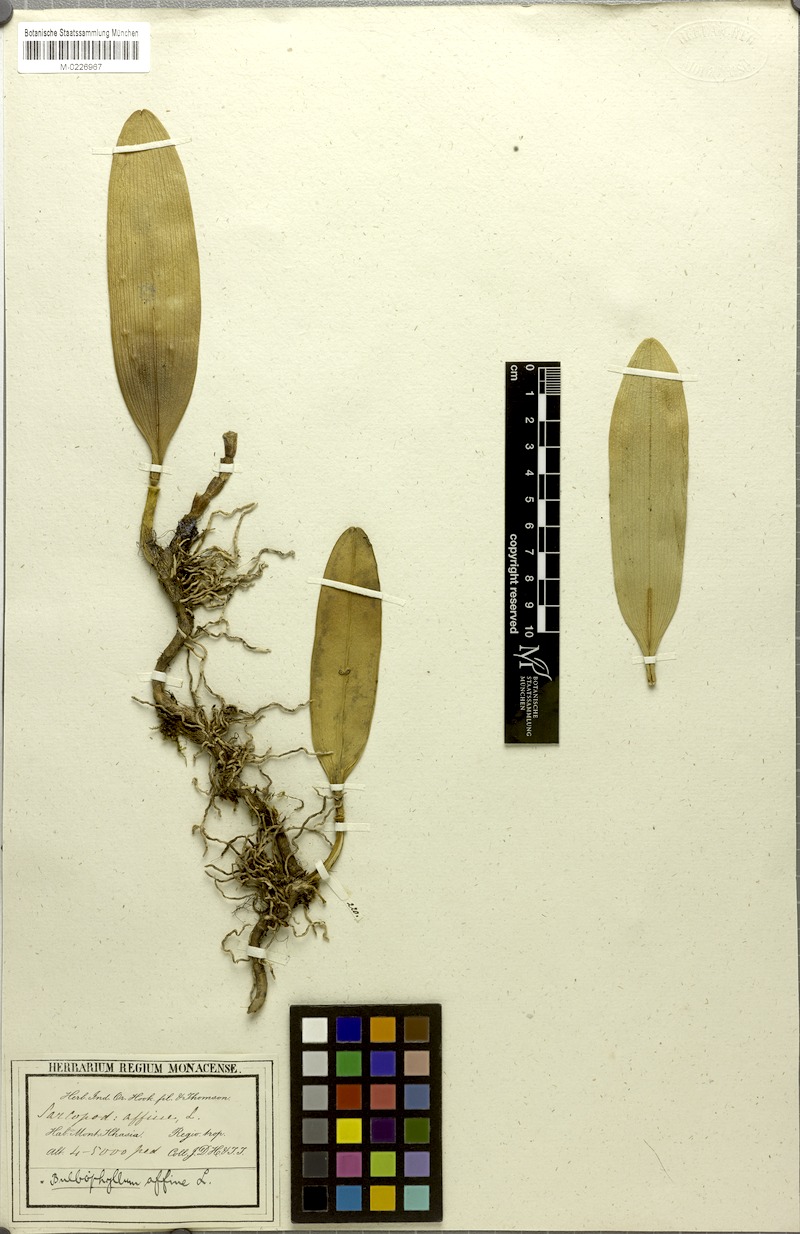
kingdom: Plantae
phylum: Tracheophyta
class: Liliopsida
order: Asparagales
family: Orchidaceae
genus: Bulbophyllum
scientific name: Bulbophyllum affine
